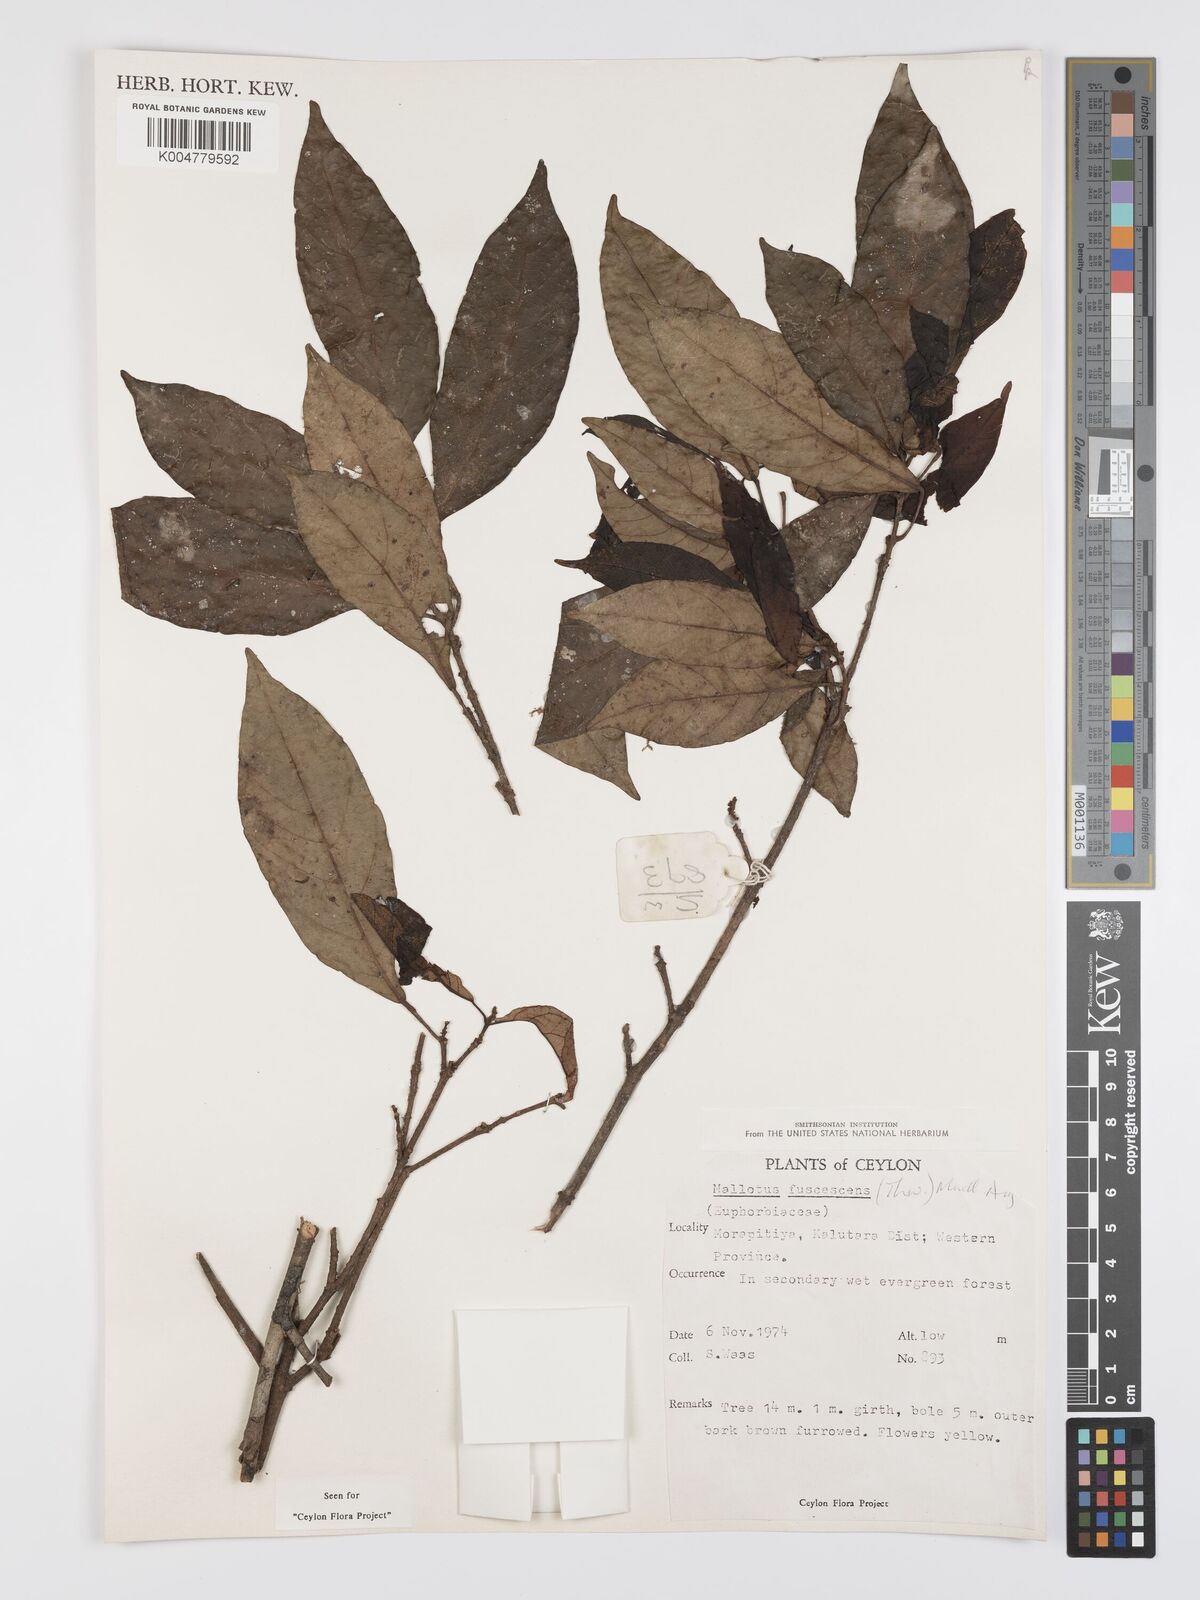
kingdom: Plantae
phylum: Tracheophyta
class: Magnoliopsida
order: Malpighiales
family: Euphorbiaceae
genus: Mallotus
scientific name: Mallotus fuscescens
